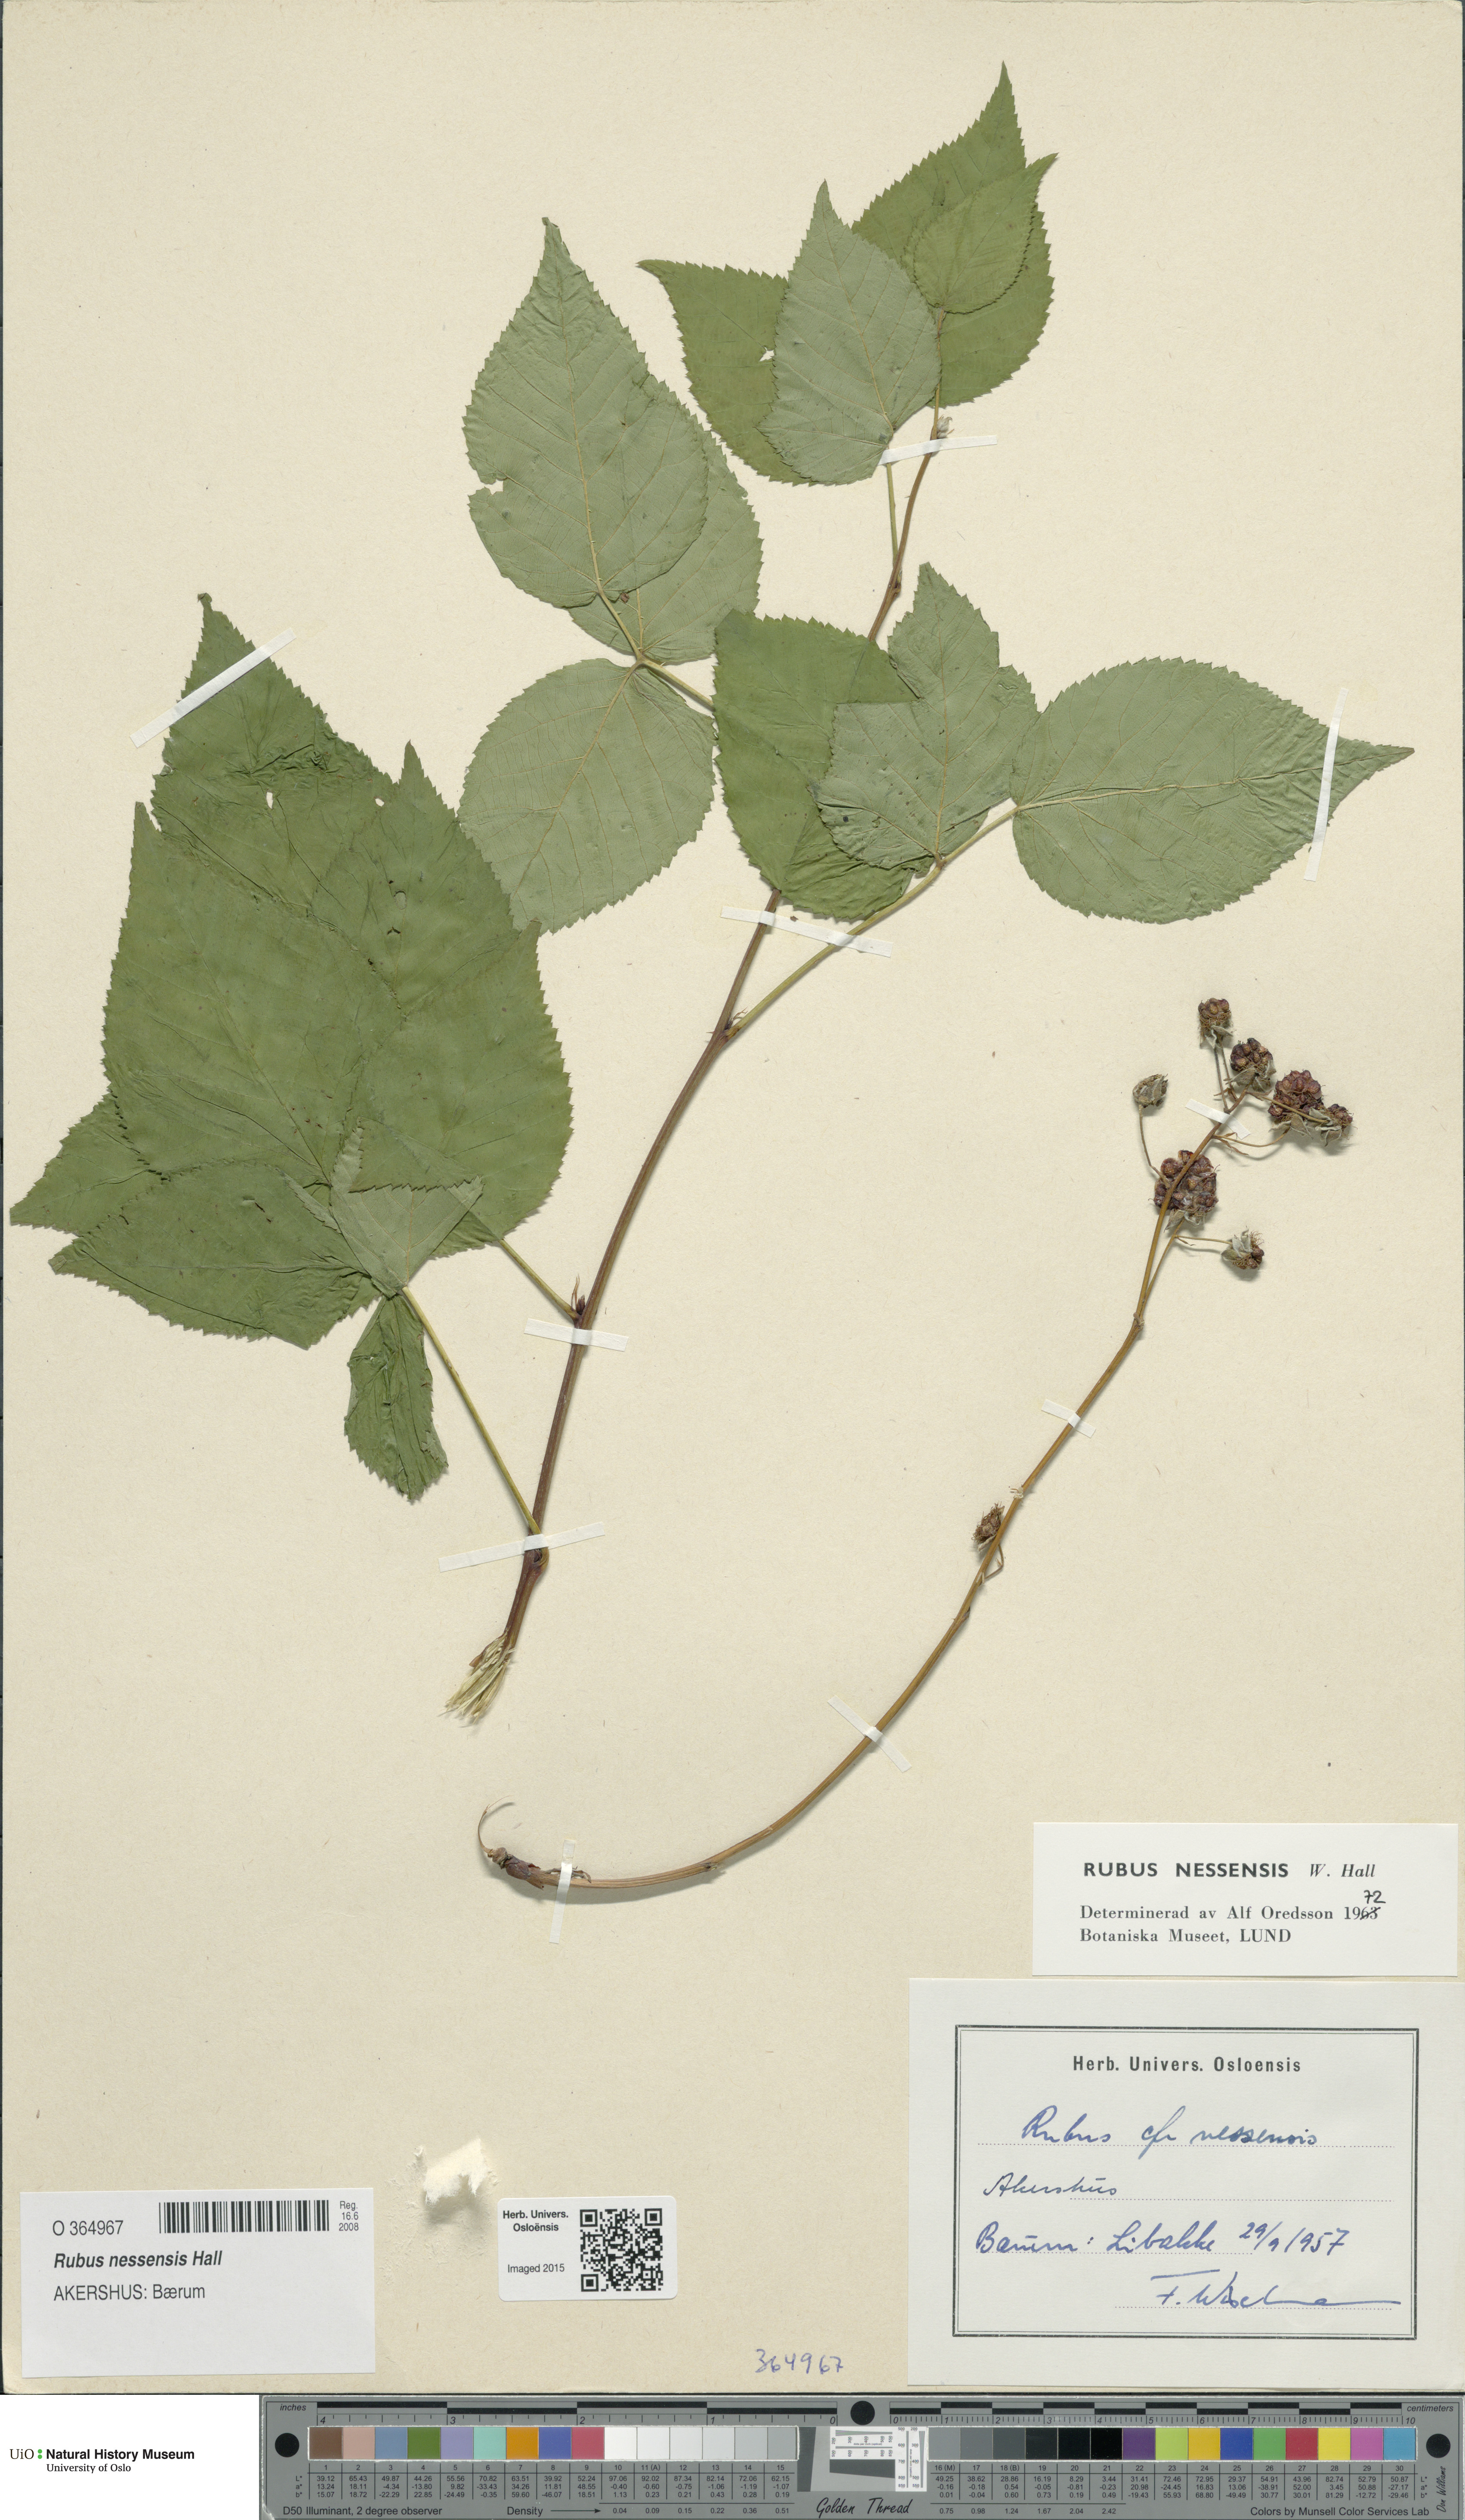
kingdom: Plantae
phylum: Tracheophyta
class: Magnoliopsida
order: Rosales
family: Rosaceae
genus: Rubus
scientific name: Rubus polonicus
